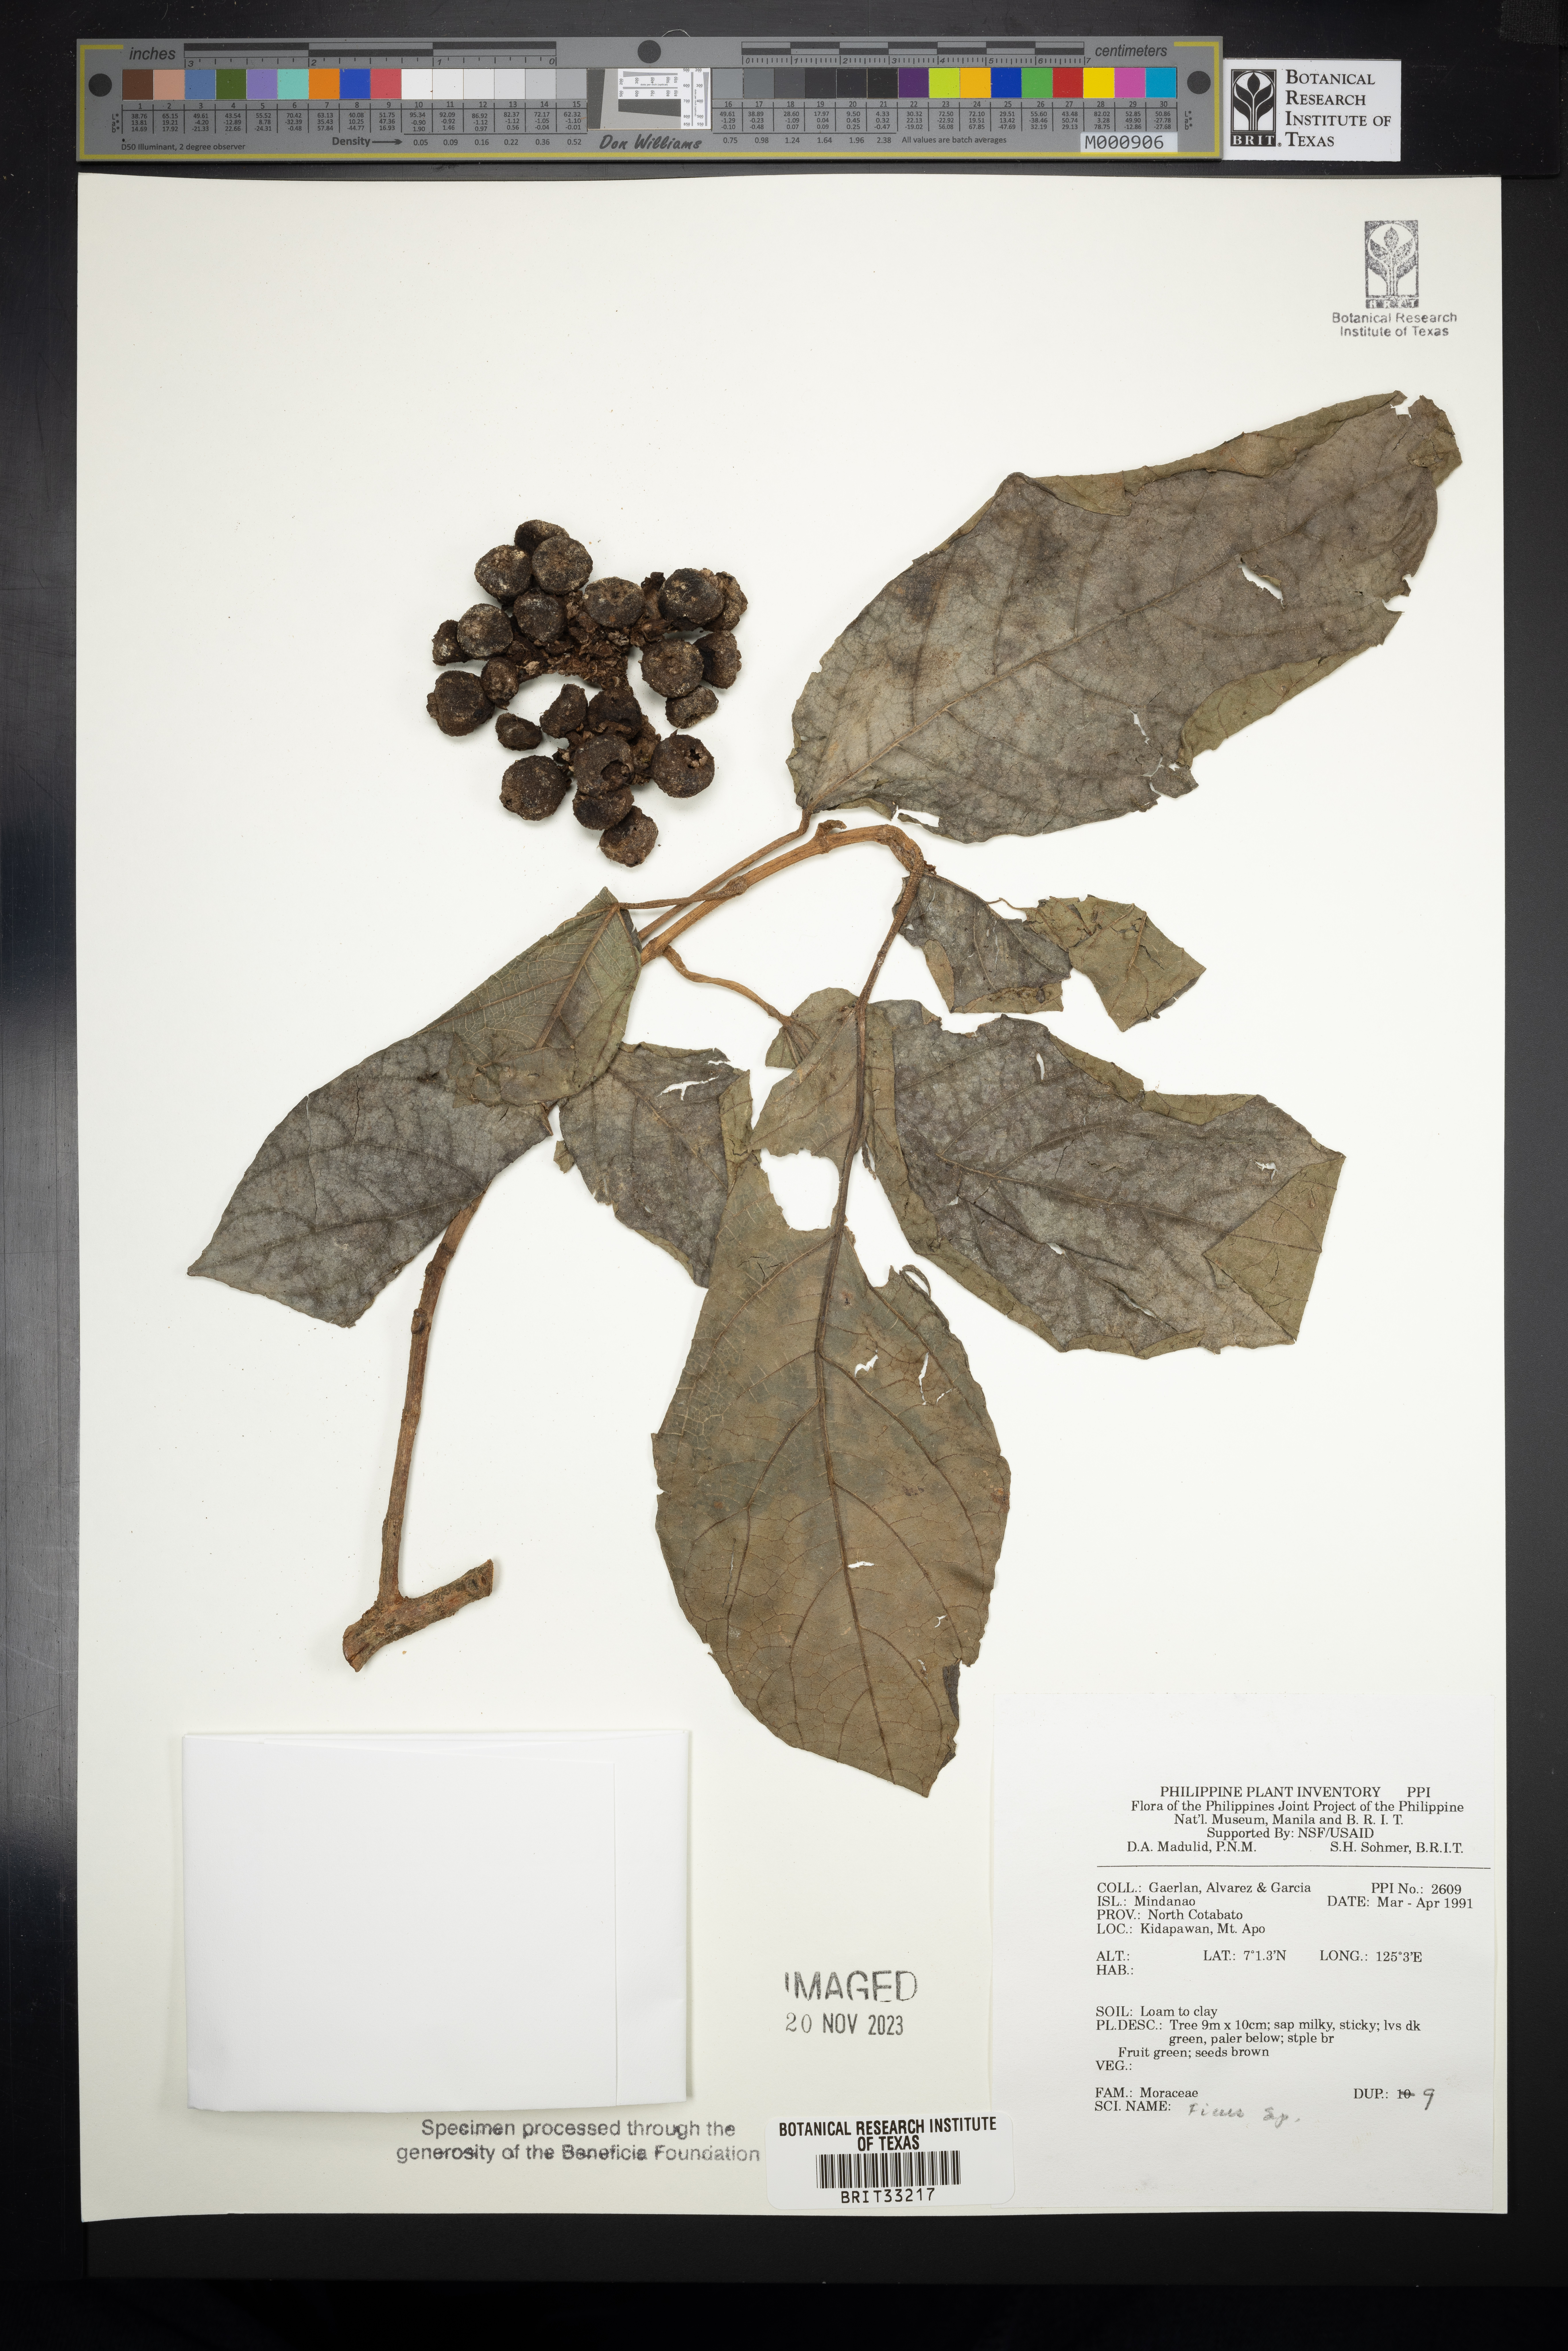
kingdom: Plantae
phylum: Tracheophyta
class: Magnoliopsida
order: Rosales
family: Moraceae
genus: Ficus
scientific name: Ficus
